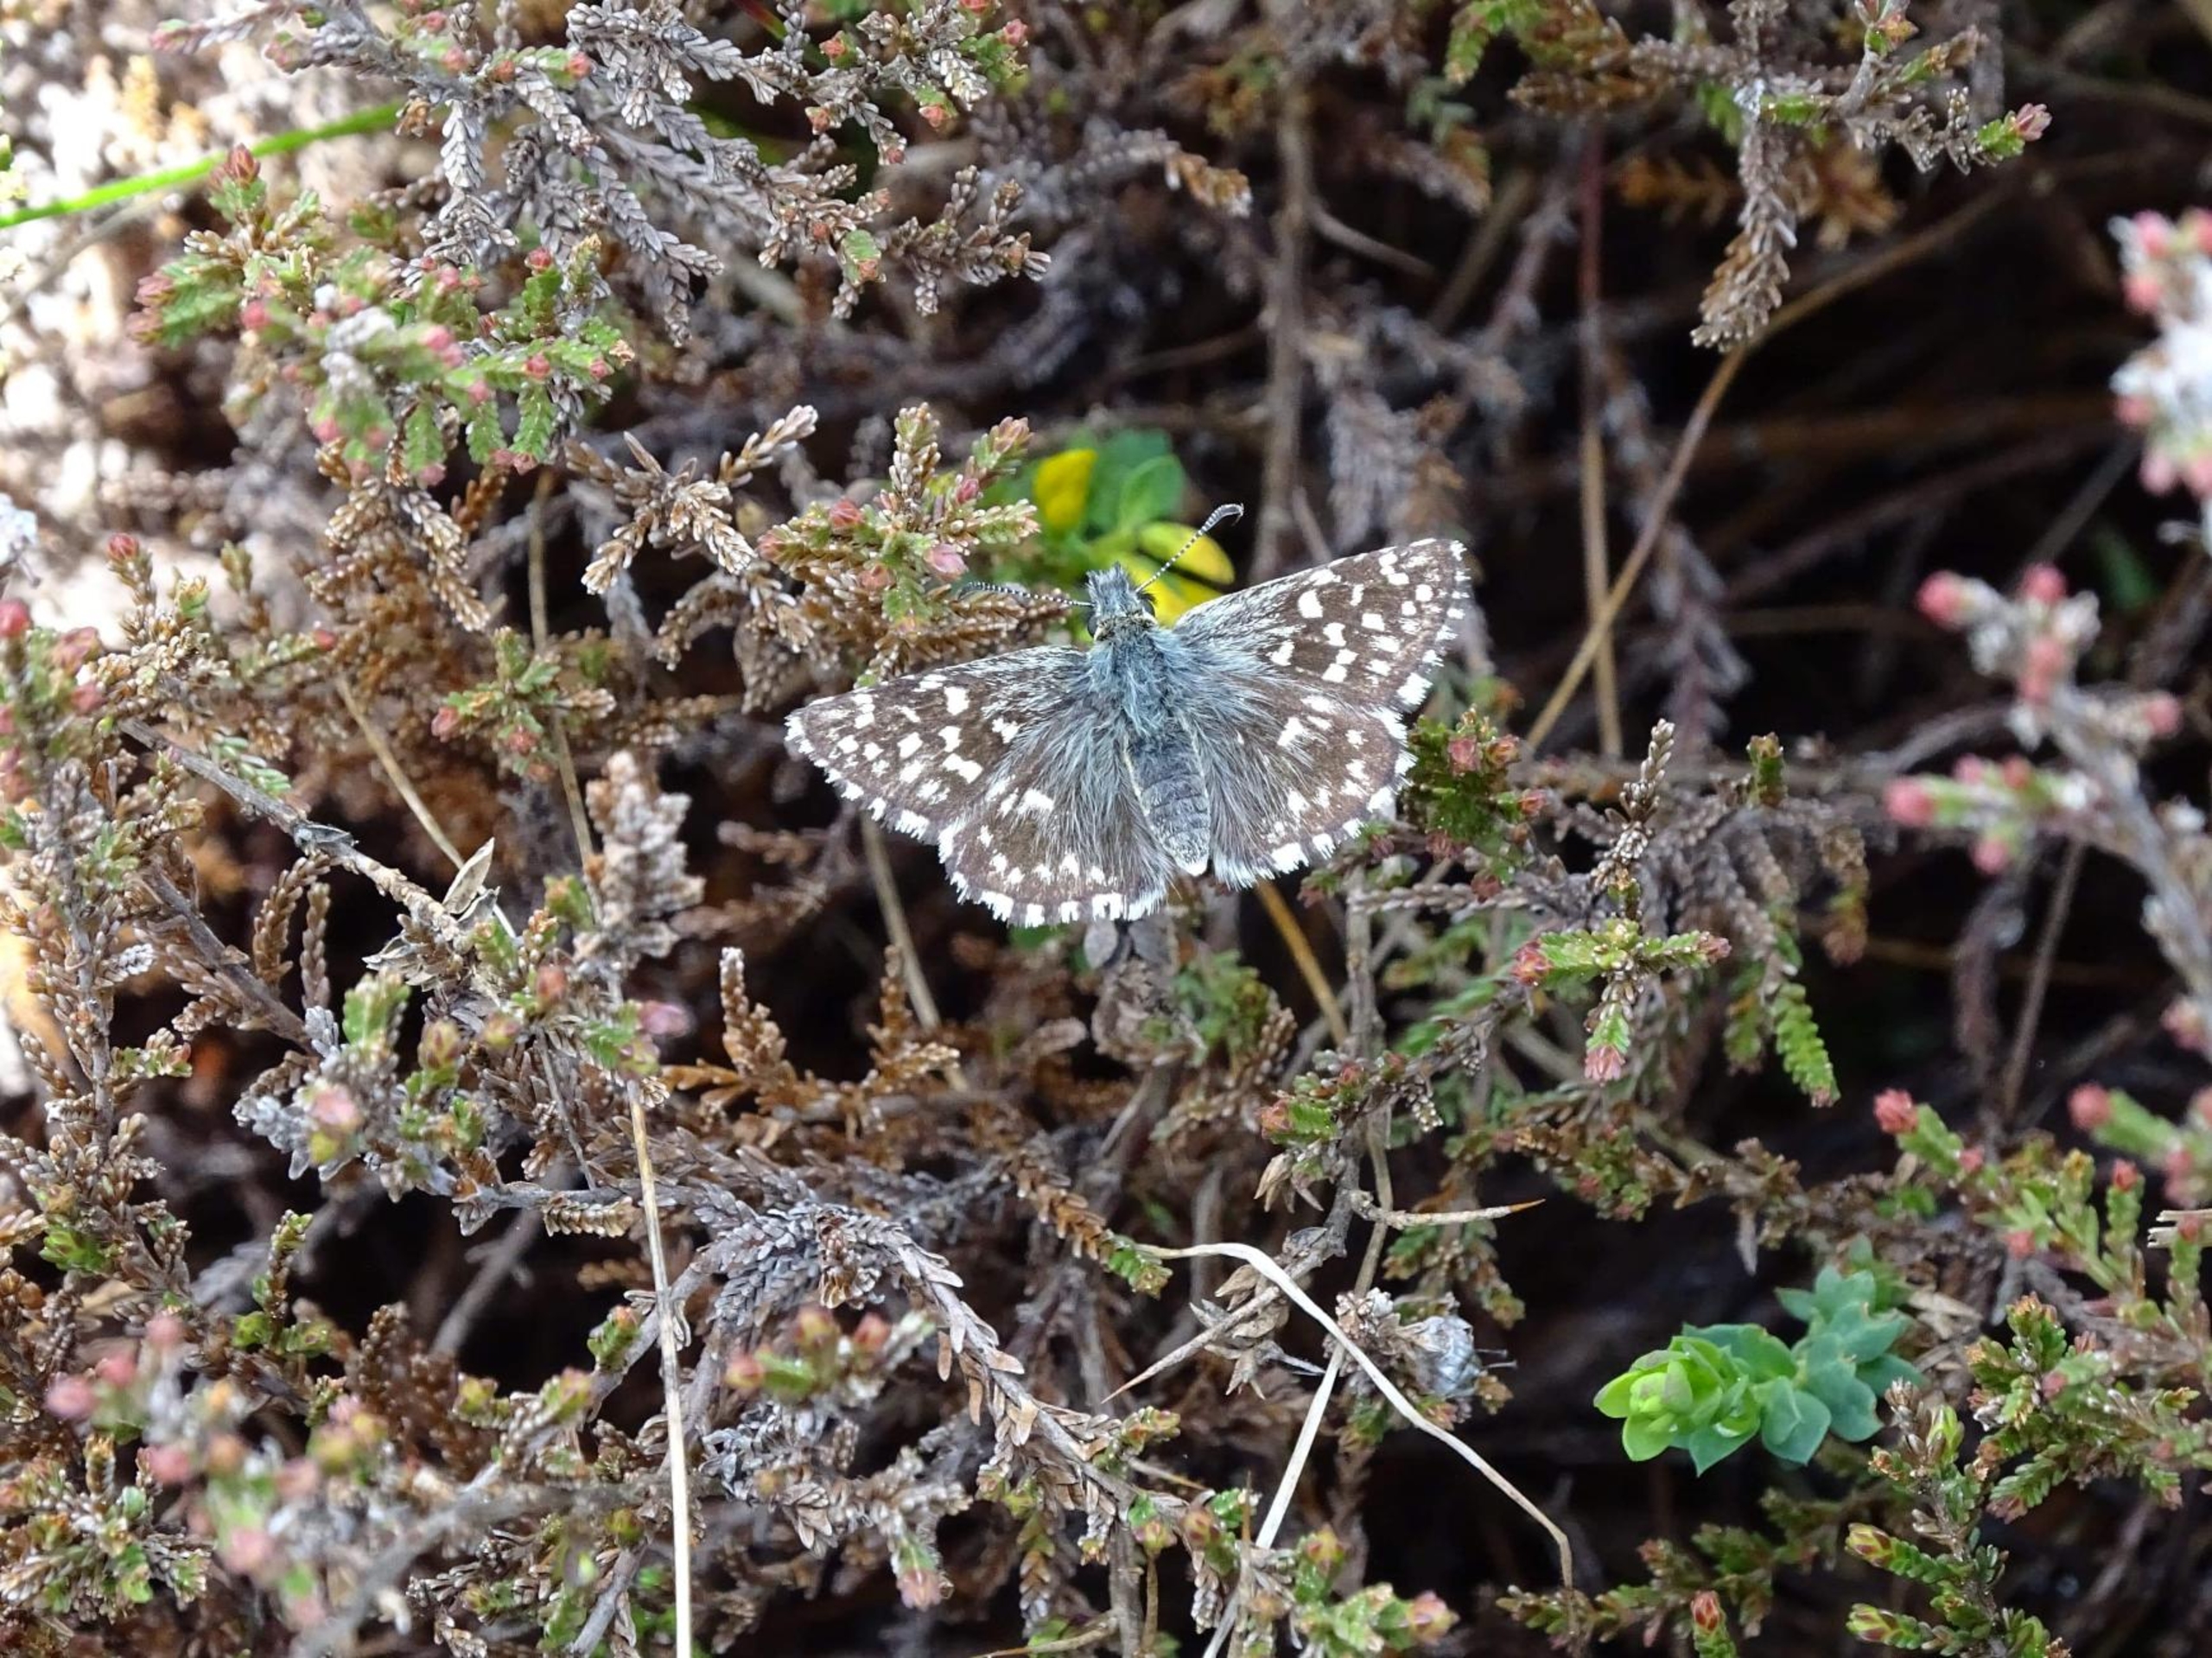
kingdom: Animalia
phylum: Arthropoda
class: Insecta
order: Lepidoptera
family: Hesperiidae
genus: Pyrgus
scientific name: Pyrgus malvae
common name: Spættet bredpande
